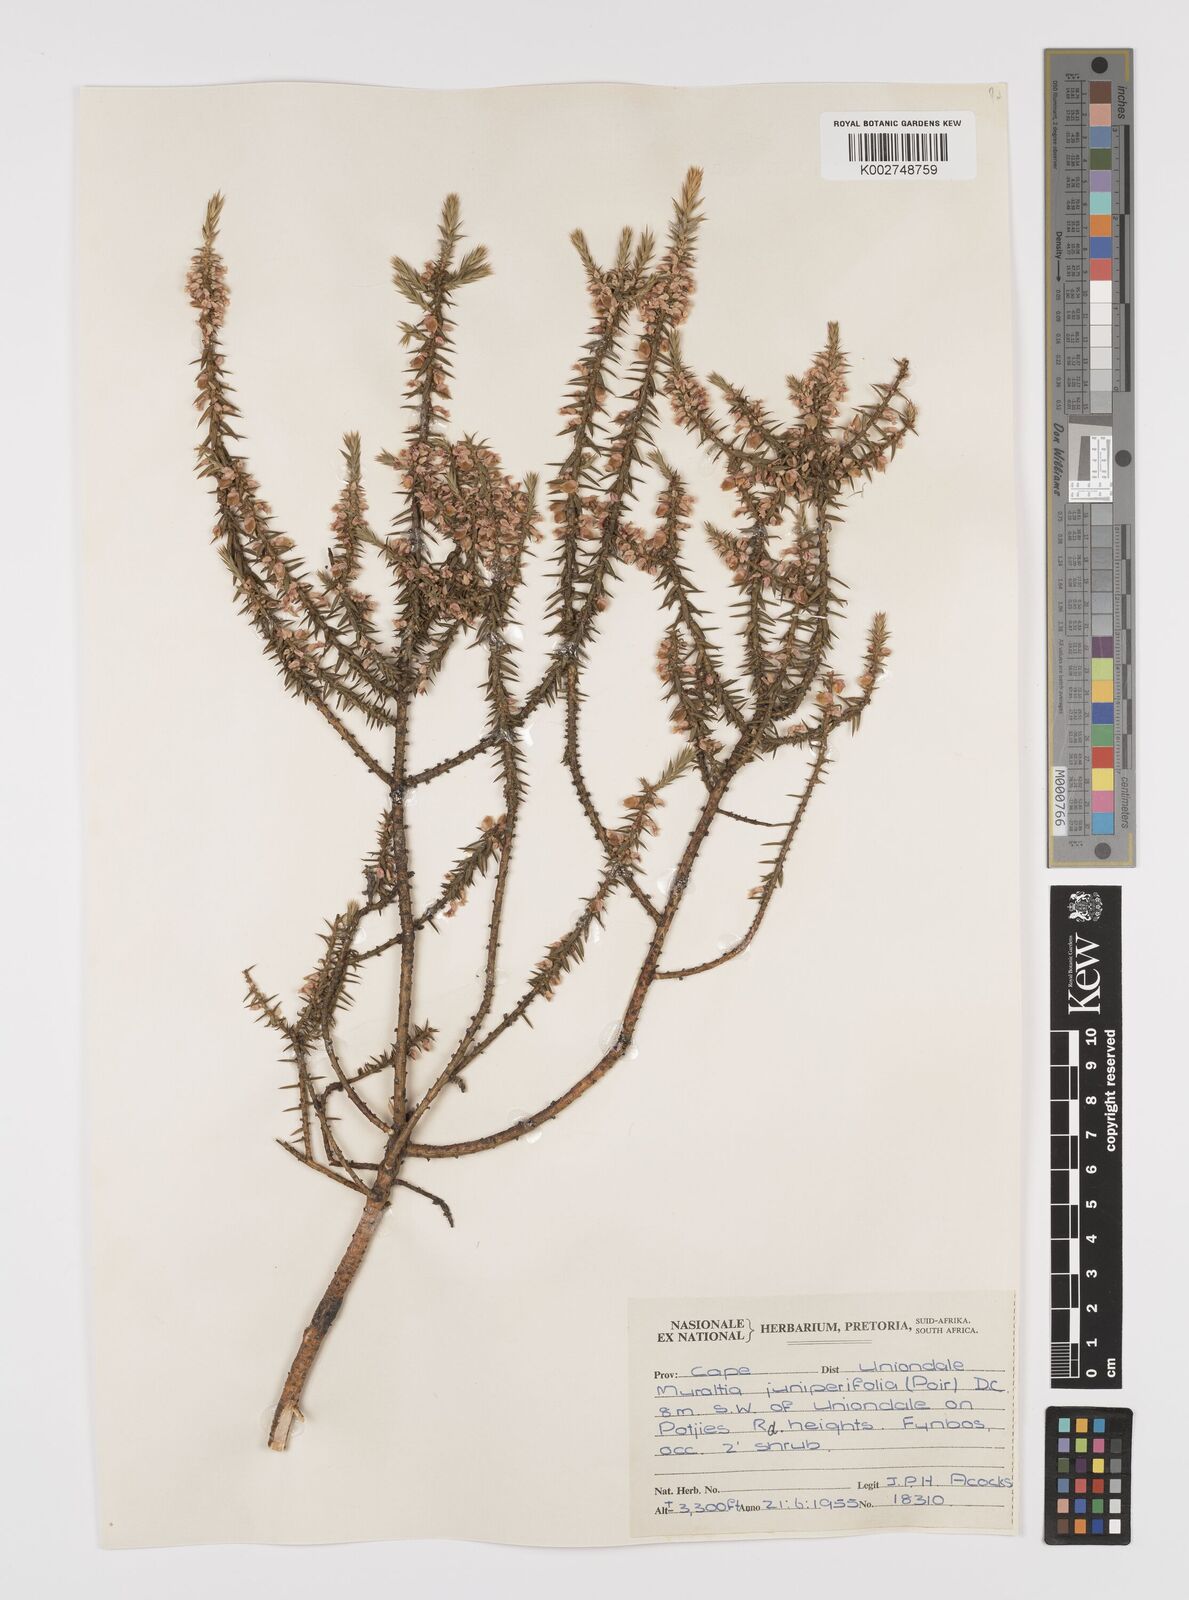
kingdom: Plantae
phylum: Tracheophyta
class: Magnoliopsida
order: Fabales
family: Polygalaceae
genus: Muraltia
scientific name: Muraltia juniperifolia
